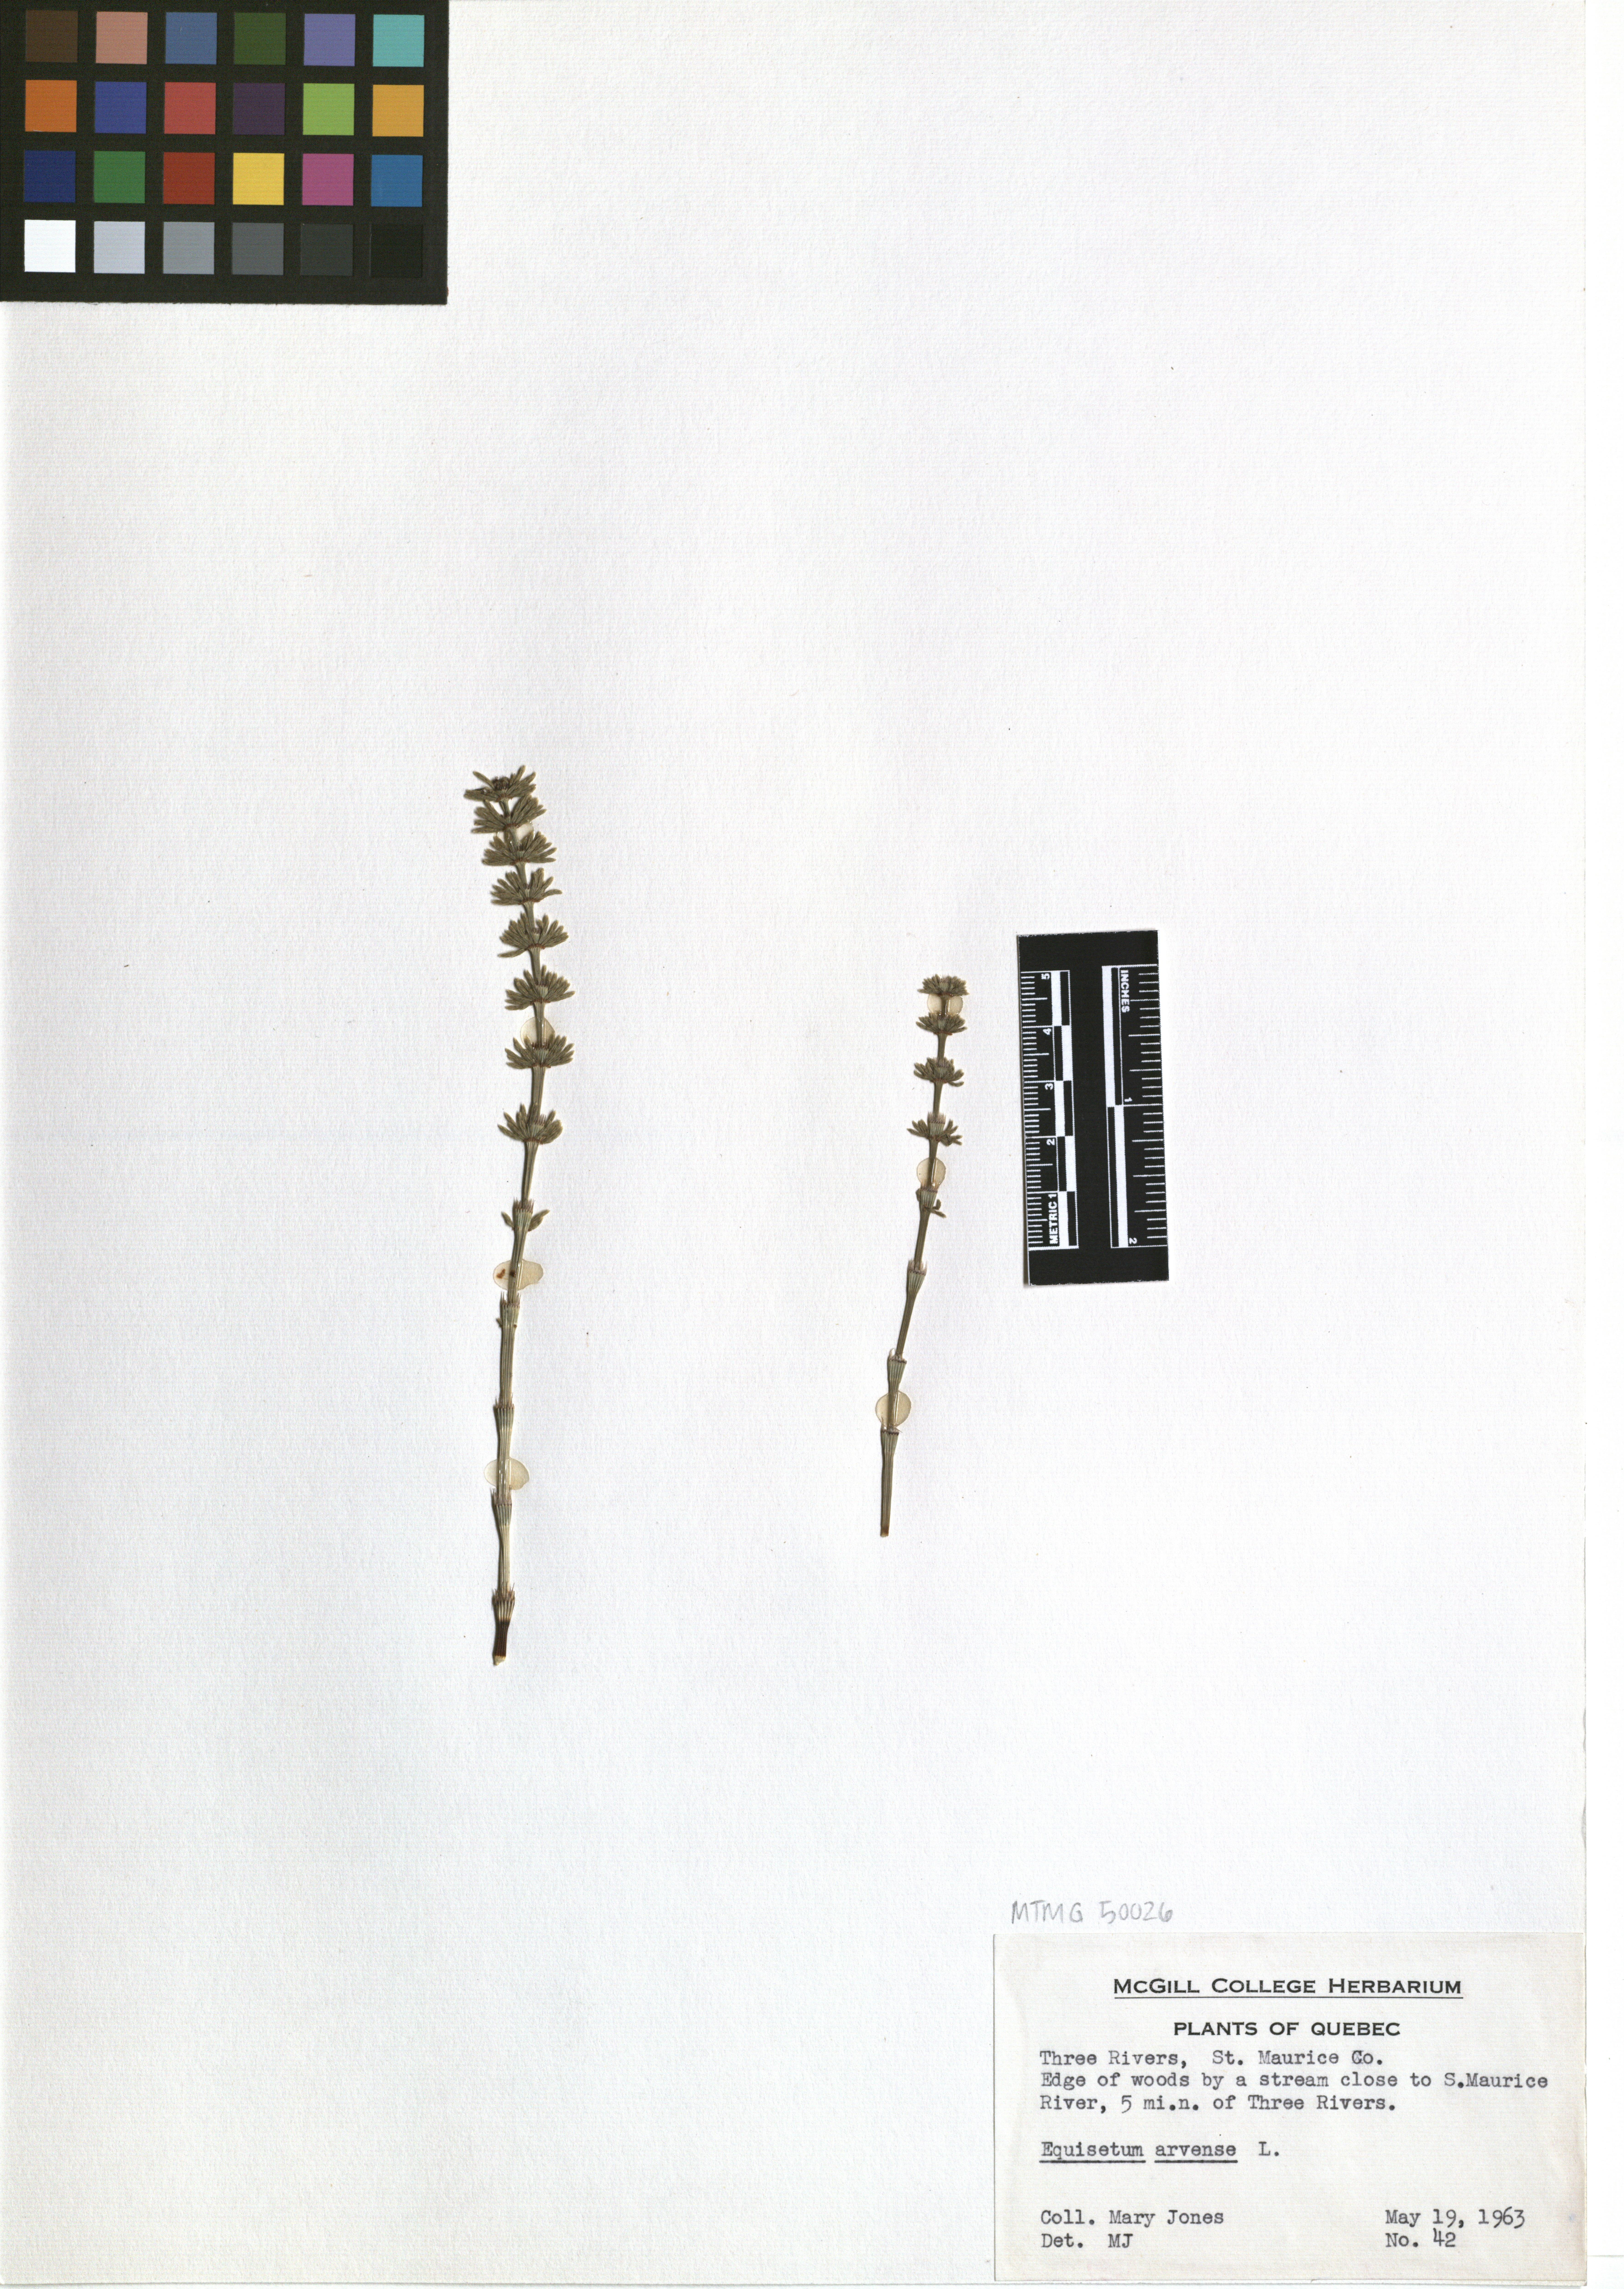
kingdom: Plantae
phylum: Tracheophyta
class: Polypodiopsida
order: Equisetales
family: Equisetaceae
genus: Equisetum
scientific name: Equisetum arvense
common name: Field horsetail
